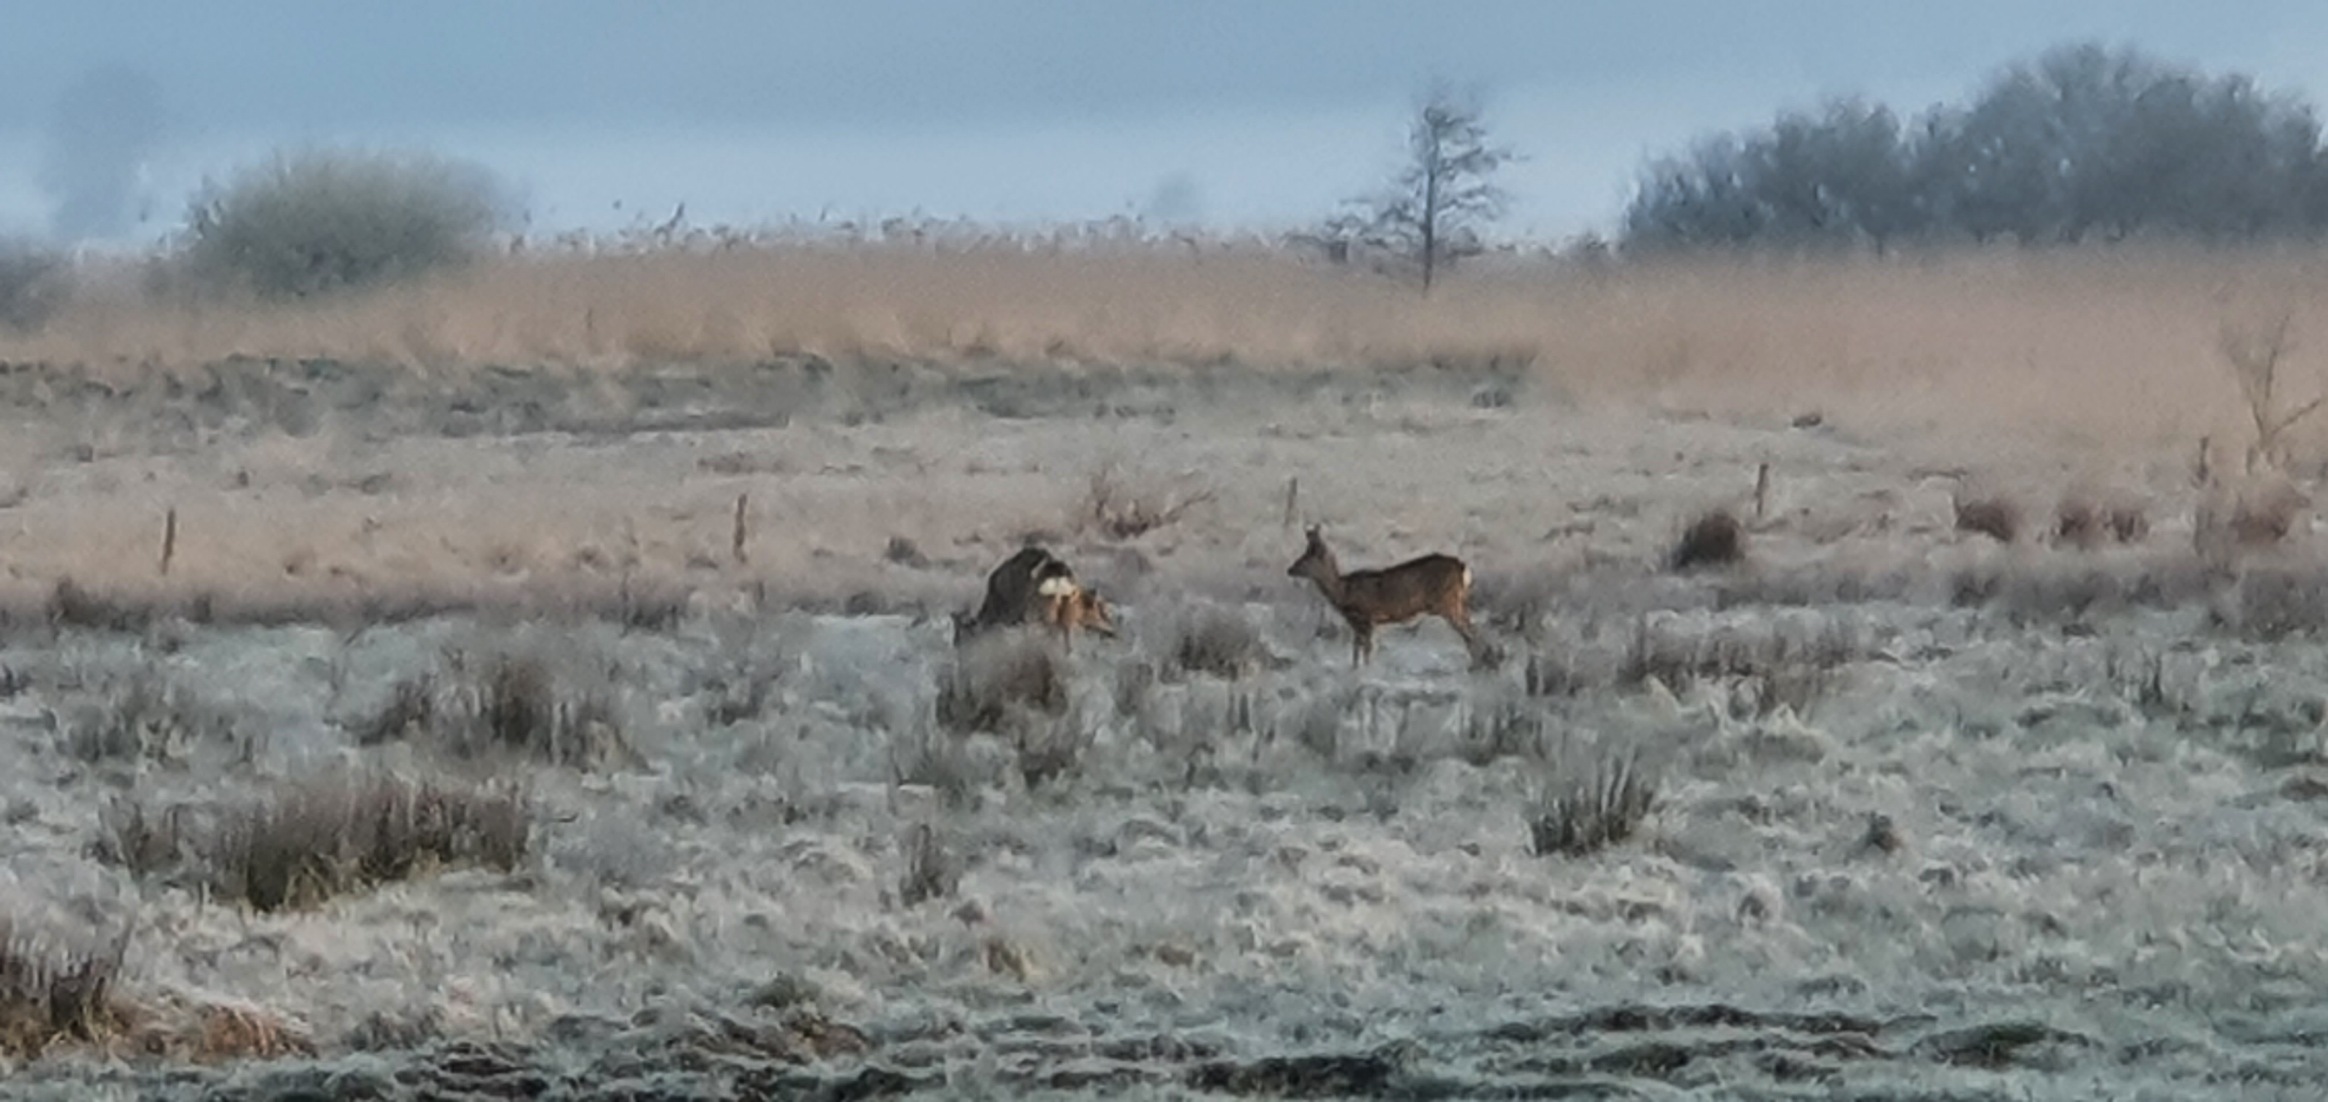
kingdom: Animalia
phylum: Chordata
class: Mammalia
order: Artiodactyla
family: Cervidae
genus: Capreolus
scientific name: Capreolus capreolus
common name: Rådyr
